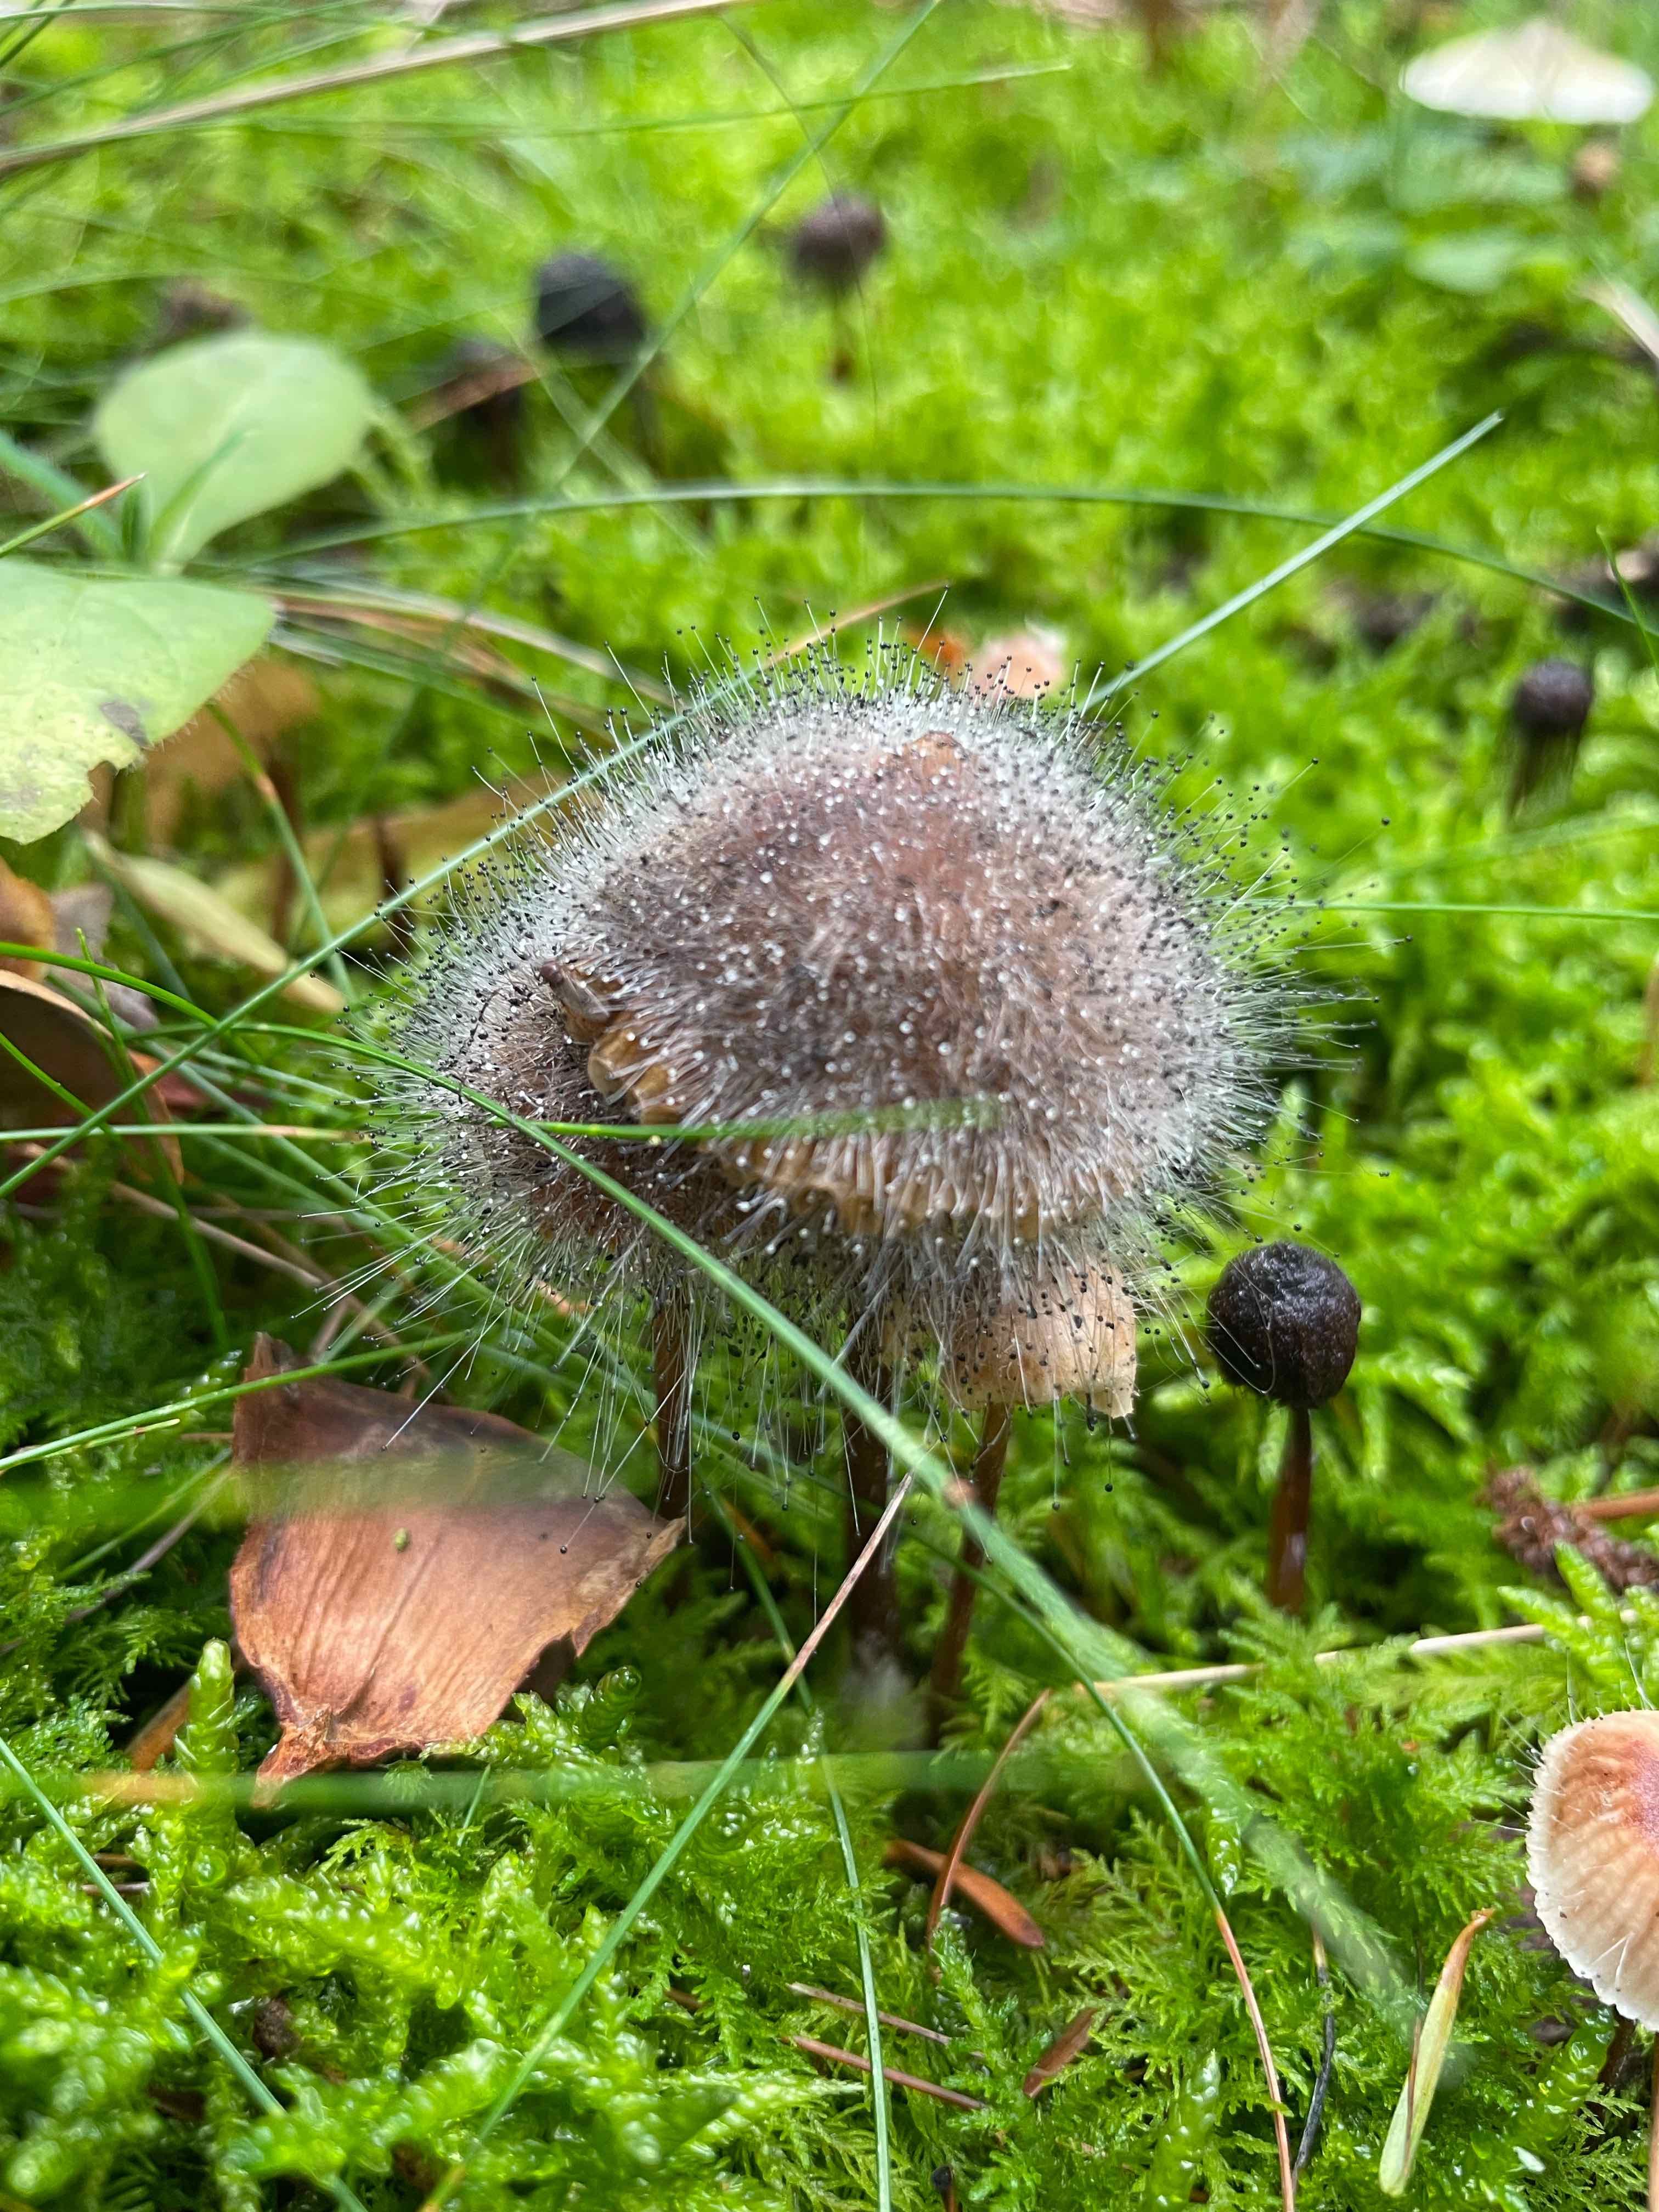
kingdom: Fungi
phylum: Mucoromycota
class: Mucoromycetes
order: Mucorales
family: Phycomycetaceae
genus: Spinellus
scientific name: Spinellus fusiger
